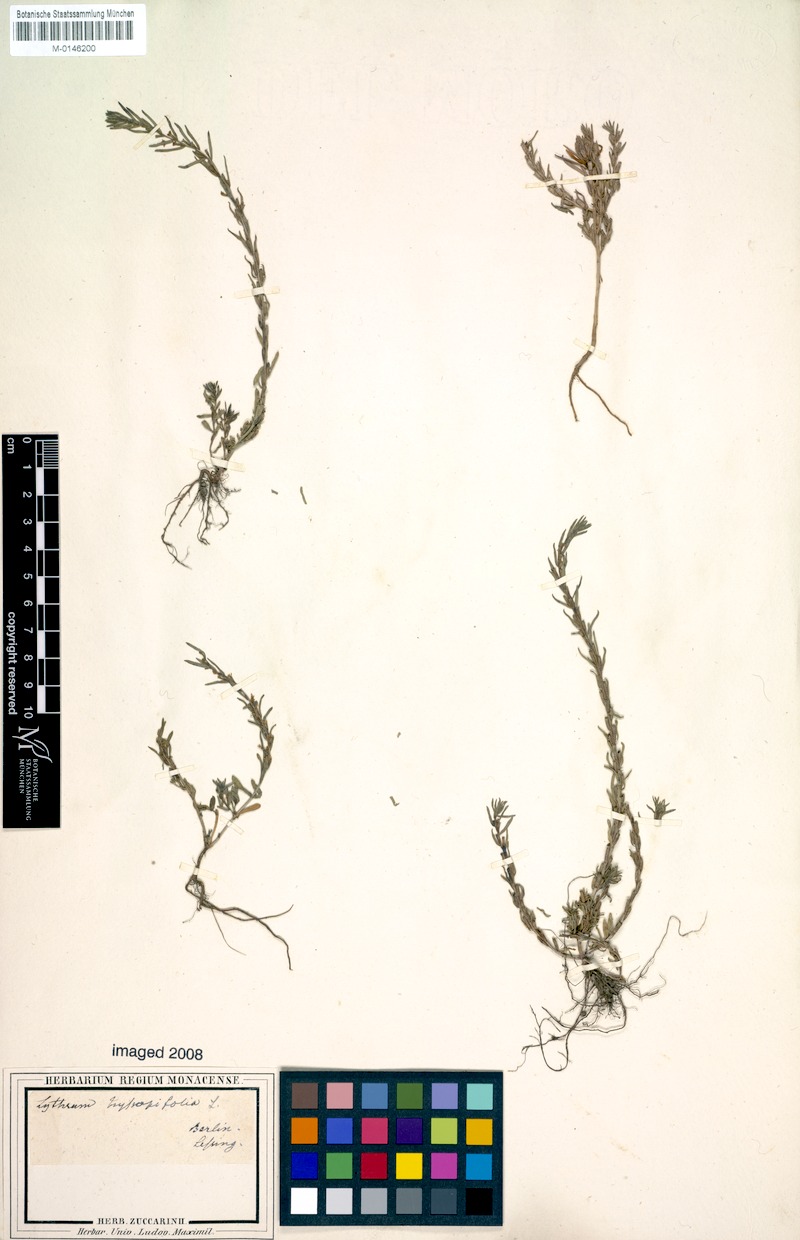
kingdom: Plantae
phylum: Tracheophyta
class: Magnoliopsida
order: Myrtales
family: Lythraceae
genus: Lythrum
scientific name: Lythrum hyssopifolia
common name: Grass-poly
